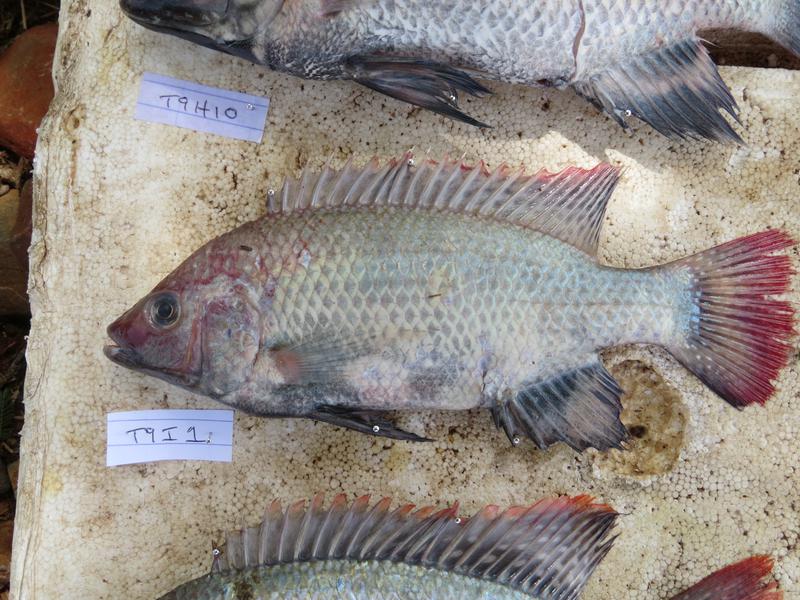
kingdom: Animalia
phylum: Chordata
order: Perciformes
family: Cichlidae
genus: Oreochromis
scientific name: Oreochromis rukwaensis
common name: Lake rukwa tilapia
